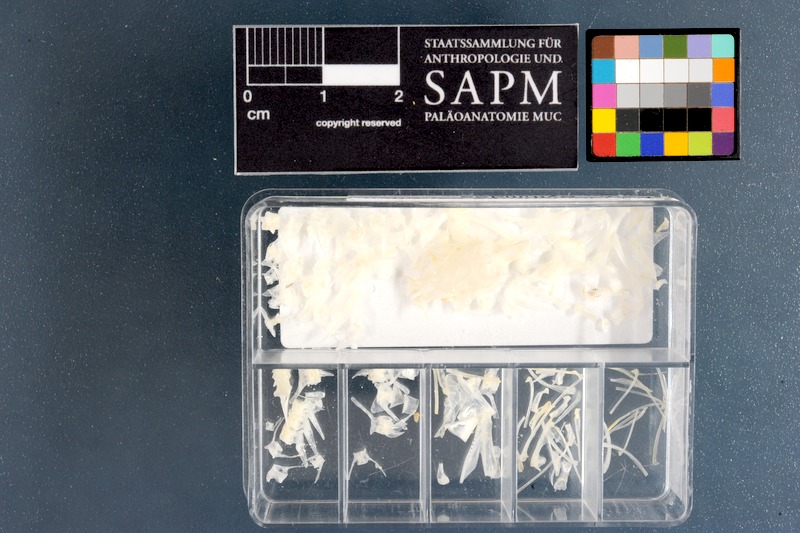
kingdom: Animalia
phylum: Chordata
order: Ophidiiformes
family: Bythitidae
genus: Bidenichthys
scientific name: Bidenichthys capensis
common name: Freetail brotula
